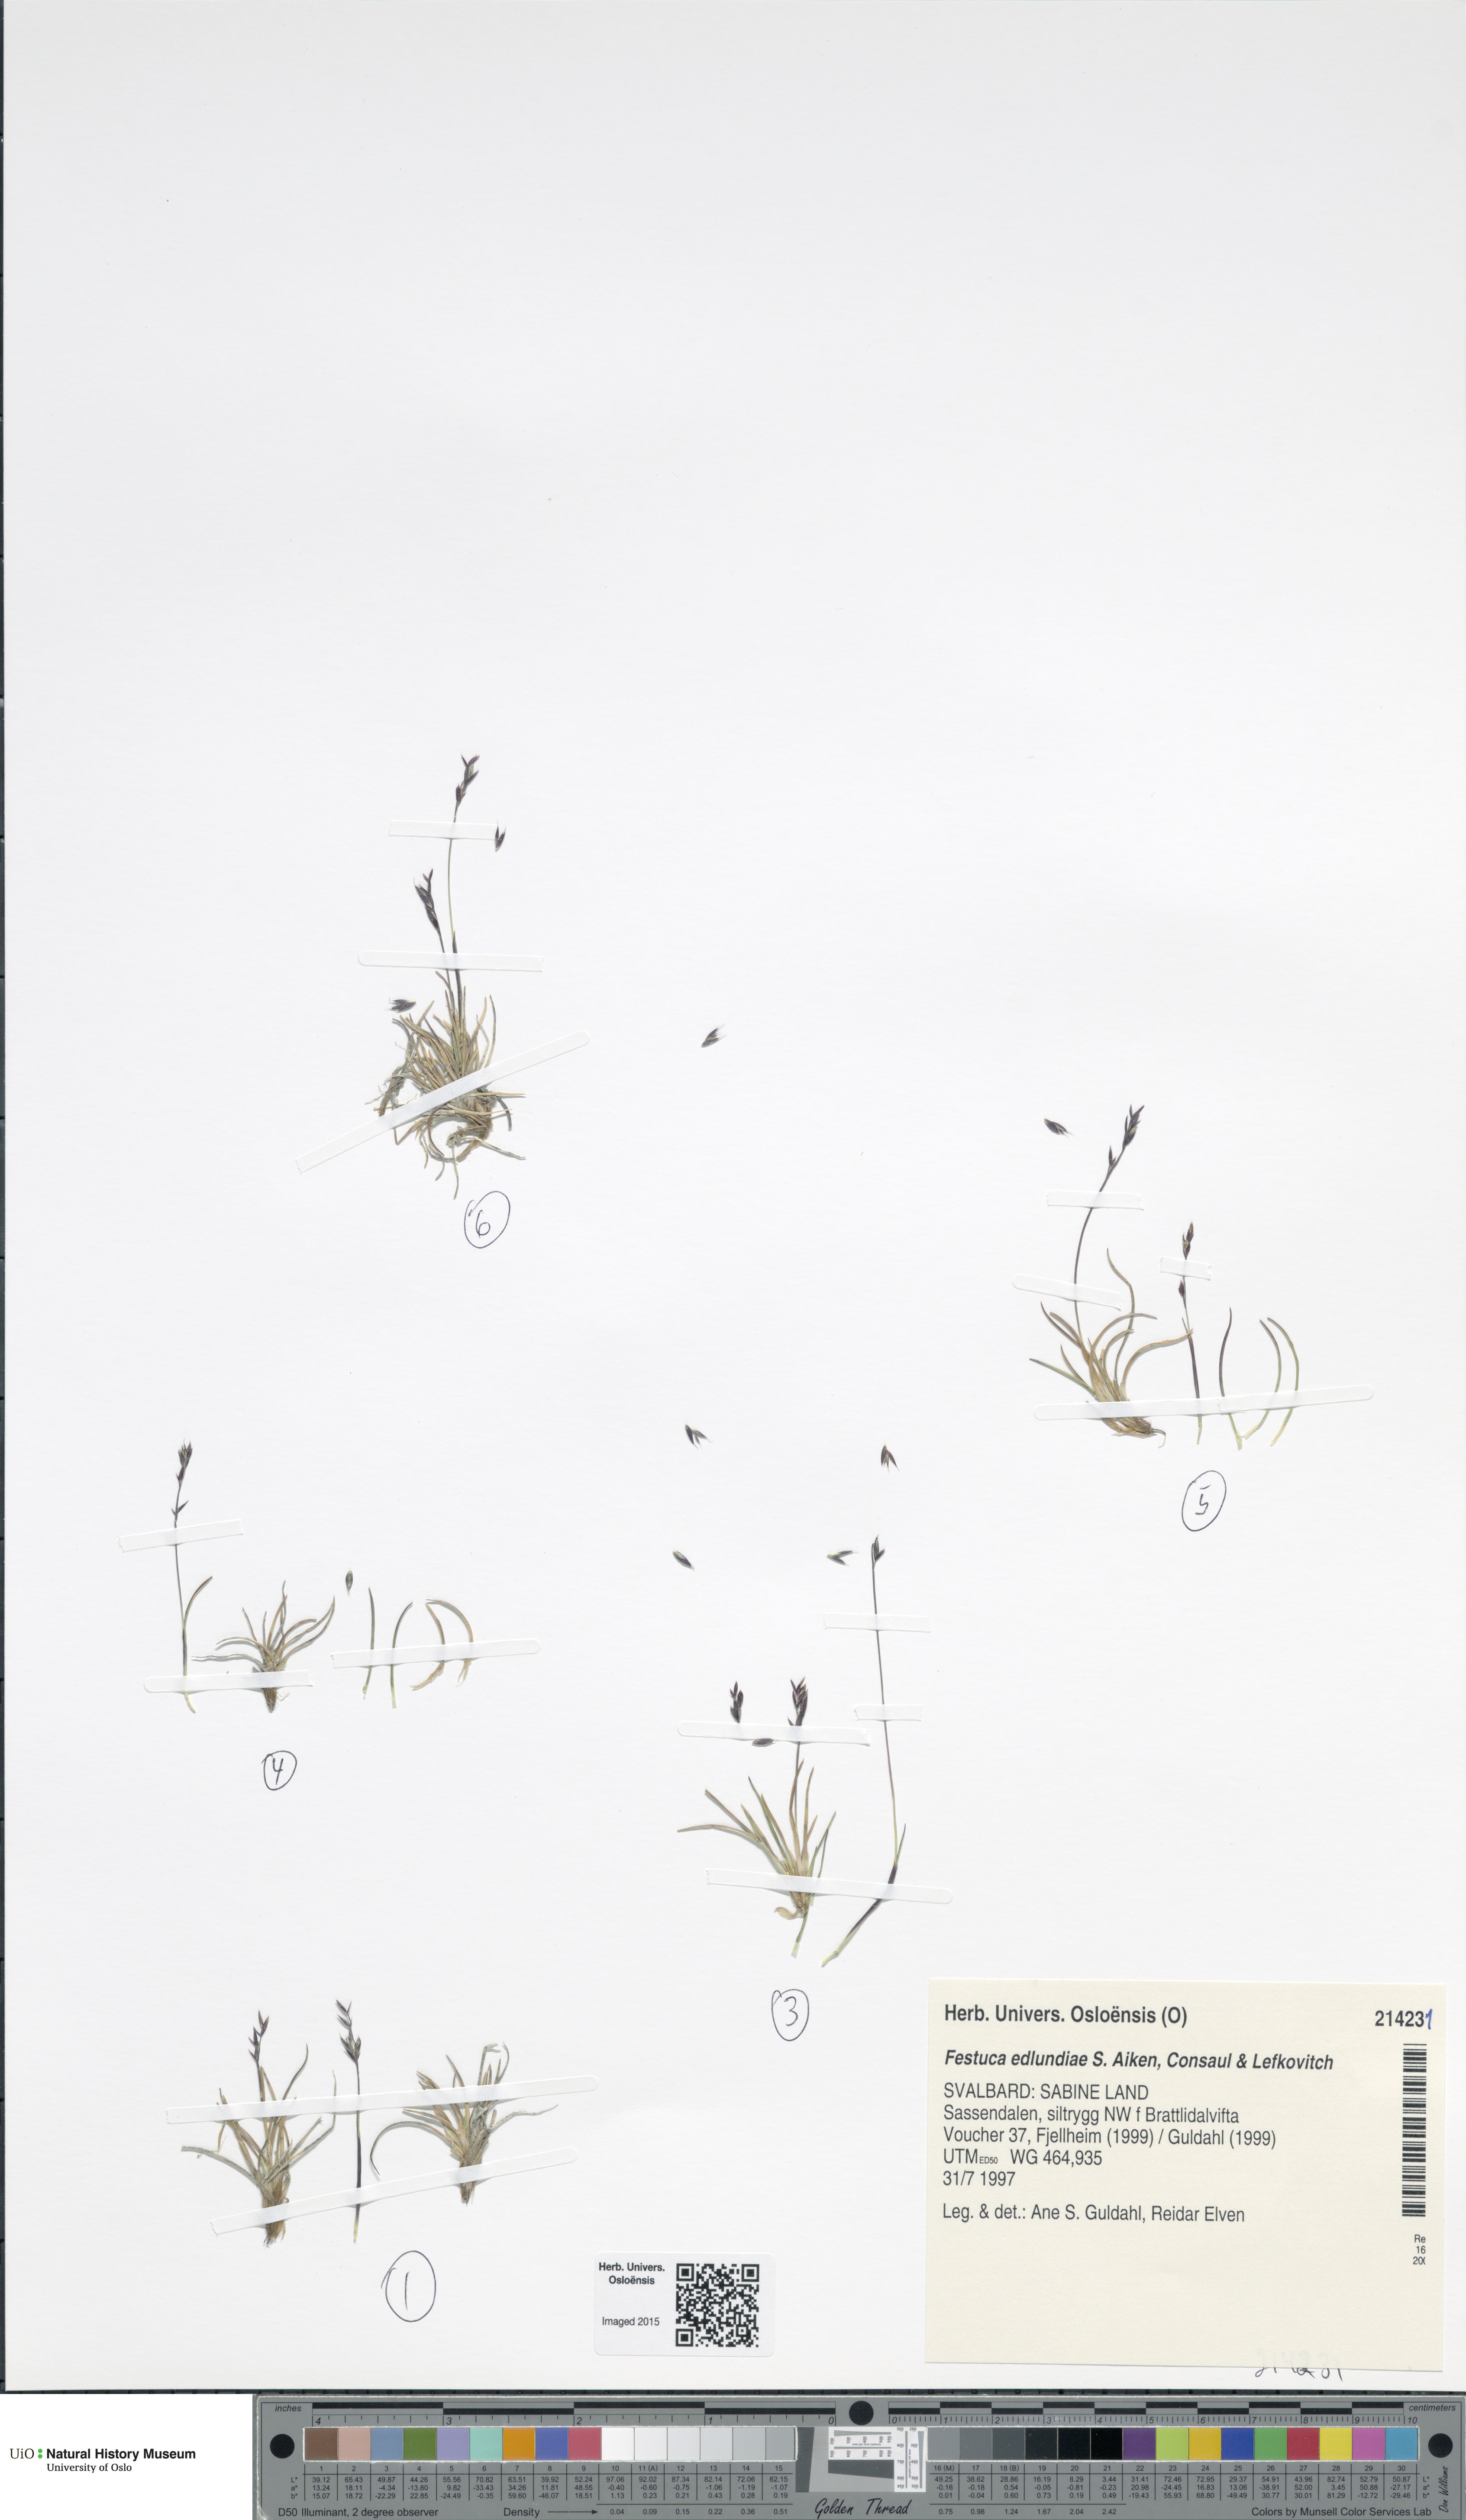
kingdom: Plantae
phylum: Tracheophyta
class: Liliopsida
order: Poales
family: Poaceae
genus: Festuca
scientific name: Festuca edlundiae
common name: Edlund's fescue
